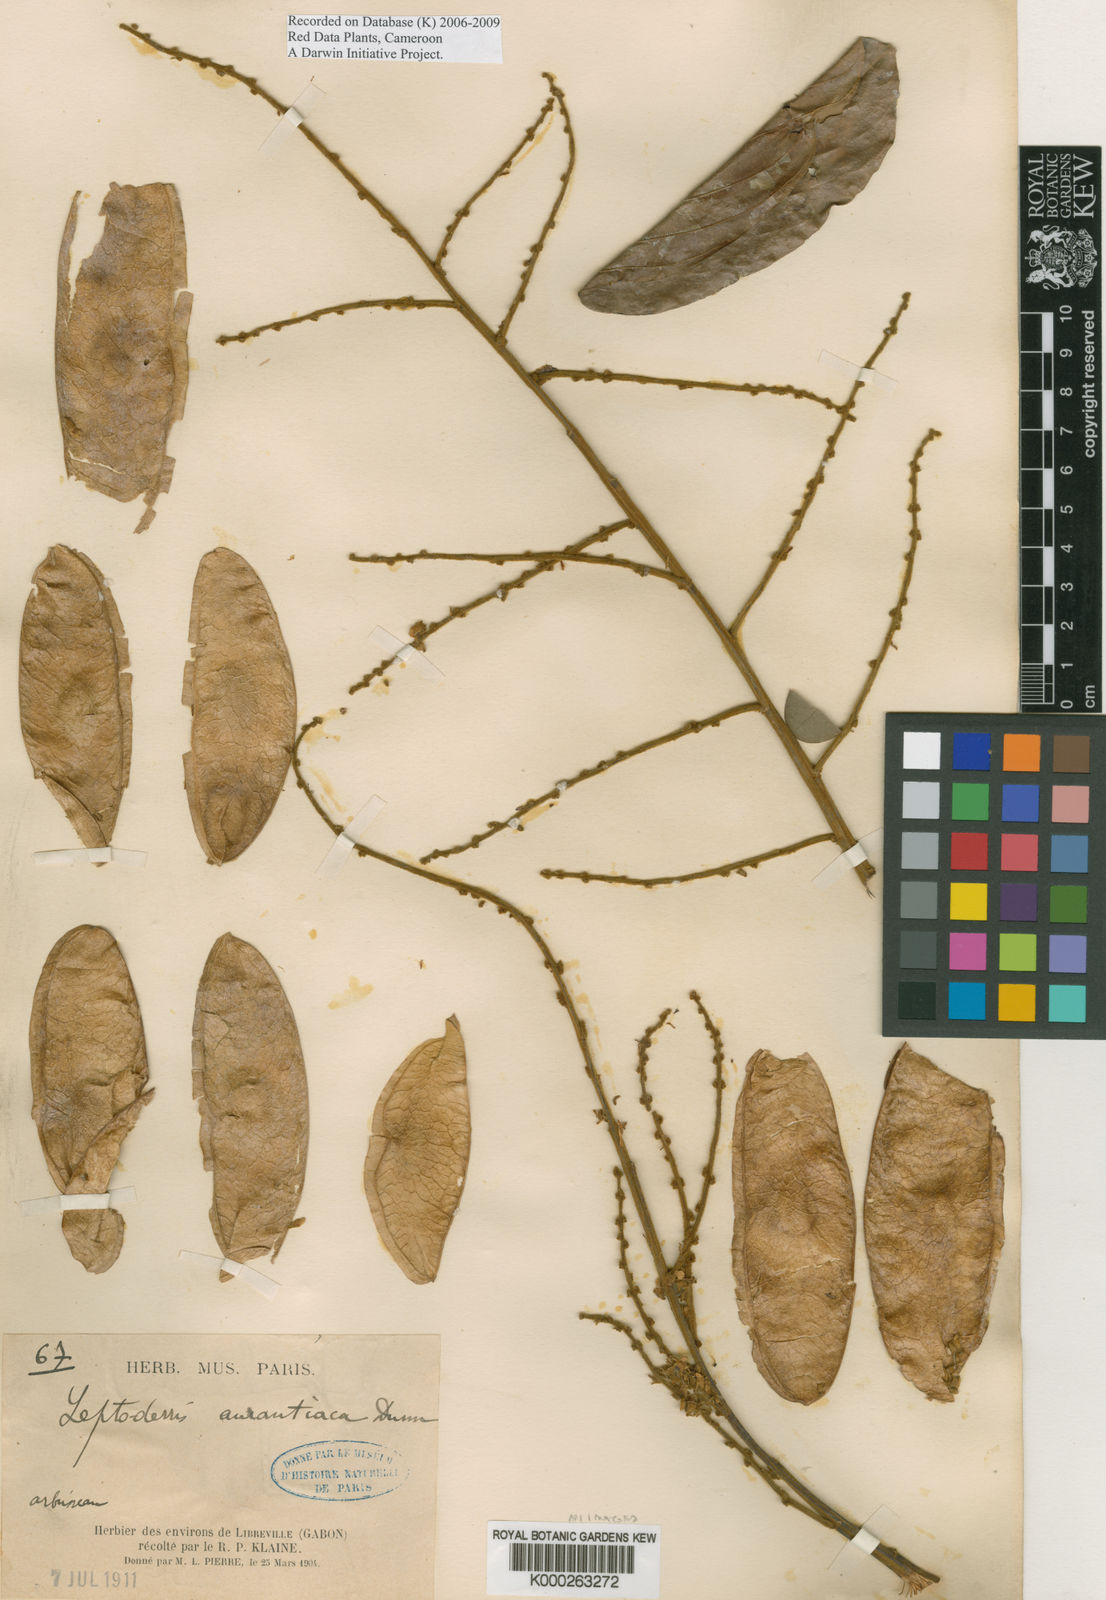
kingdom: Plantae
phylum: Tracheophyta
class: Magnoliopsida
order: Fabales
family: Fabaceae
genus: Leptoderris
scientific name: Leptoderris aurantiaca
